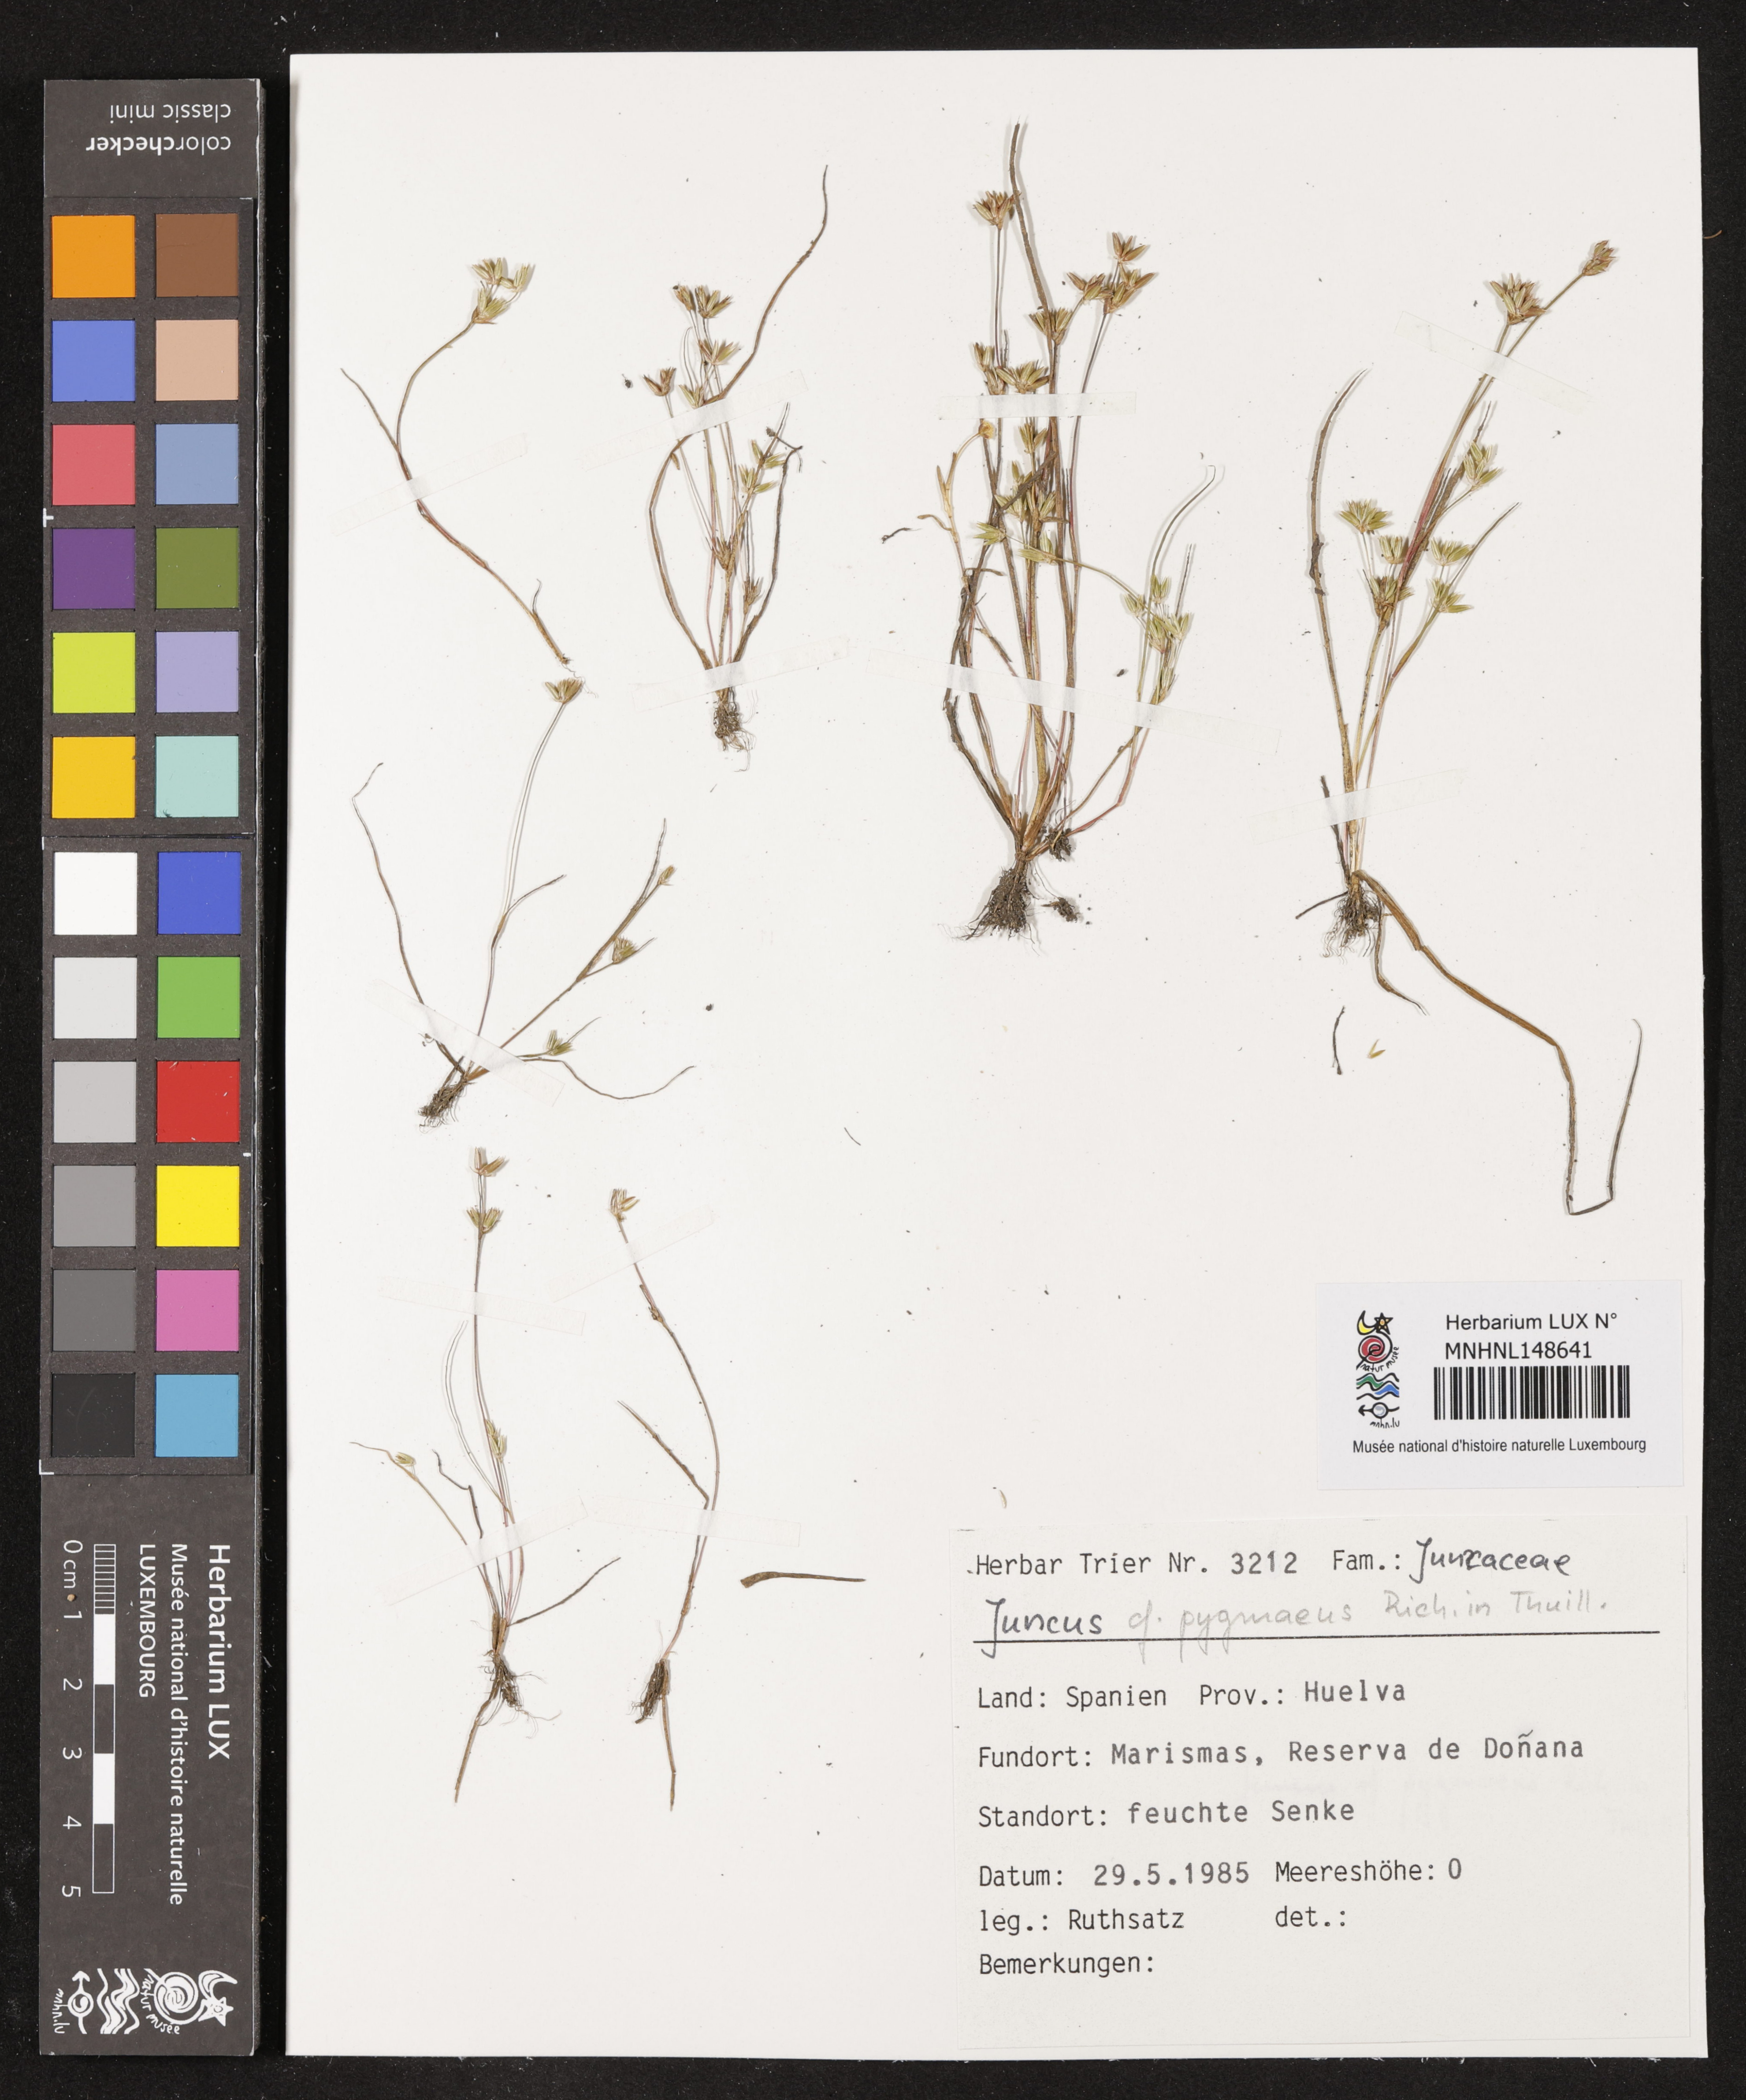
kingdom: Plantae
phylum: Tracheophyta
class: Liliopsida
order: Poales
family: Juncaceae
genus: Juncus
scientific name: Juncus pygmaeus
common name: Pigmy rush
